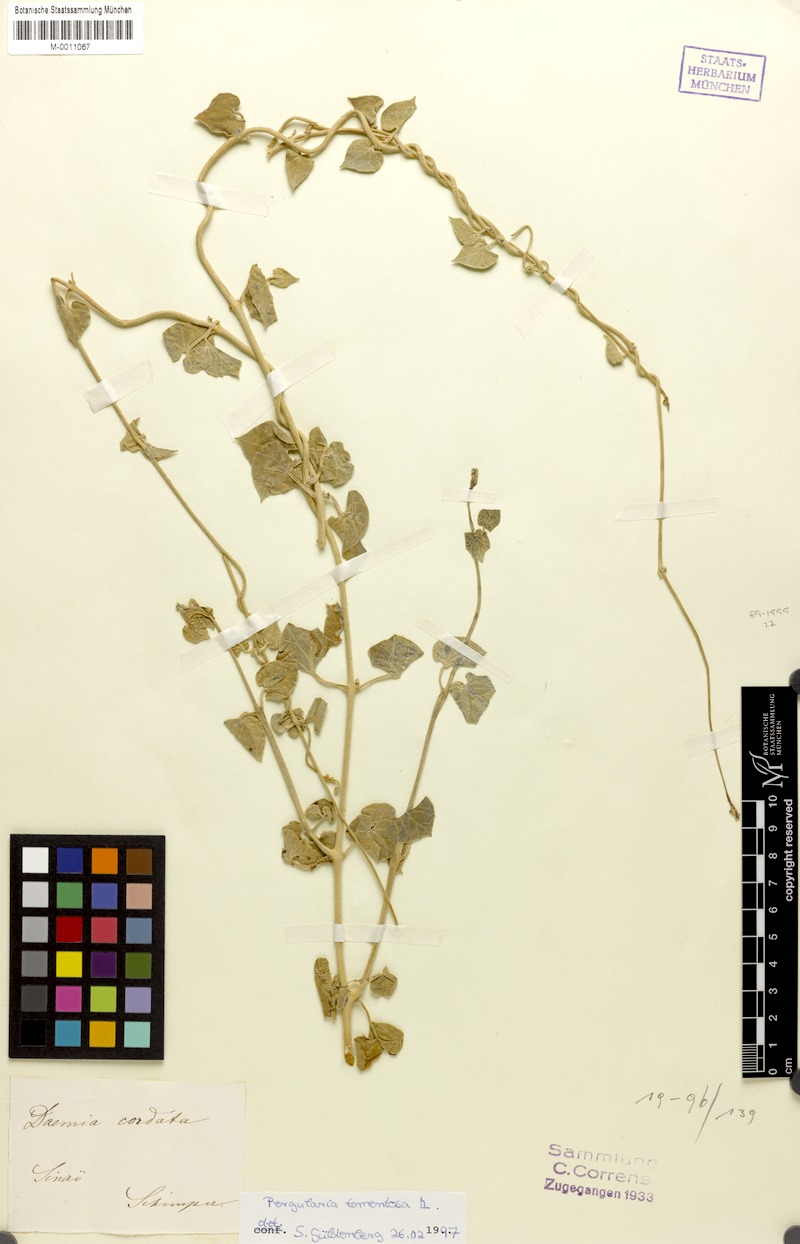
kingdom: Plantae
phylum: Tracheophyta
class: Magnoliopsida
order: Gentianales
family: Apocynaceae
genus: Pergularia
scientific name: Pergularia tomentosa
